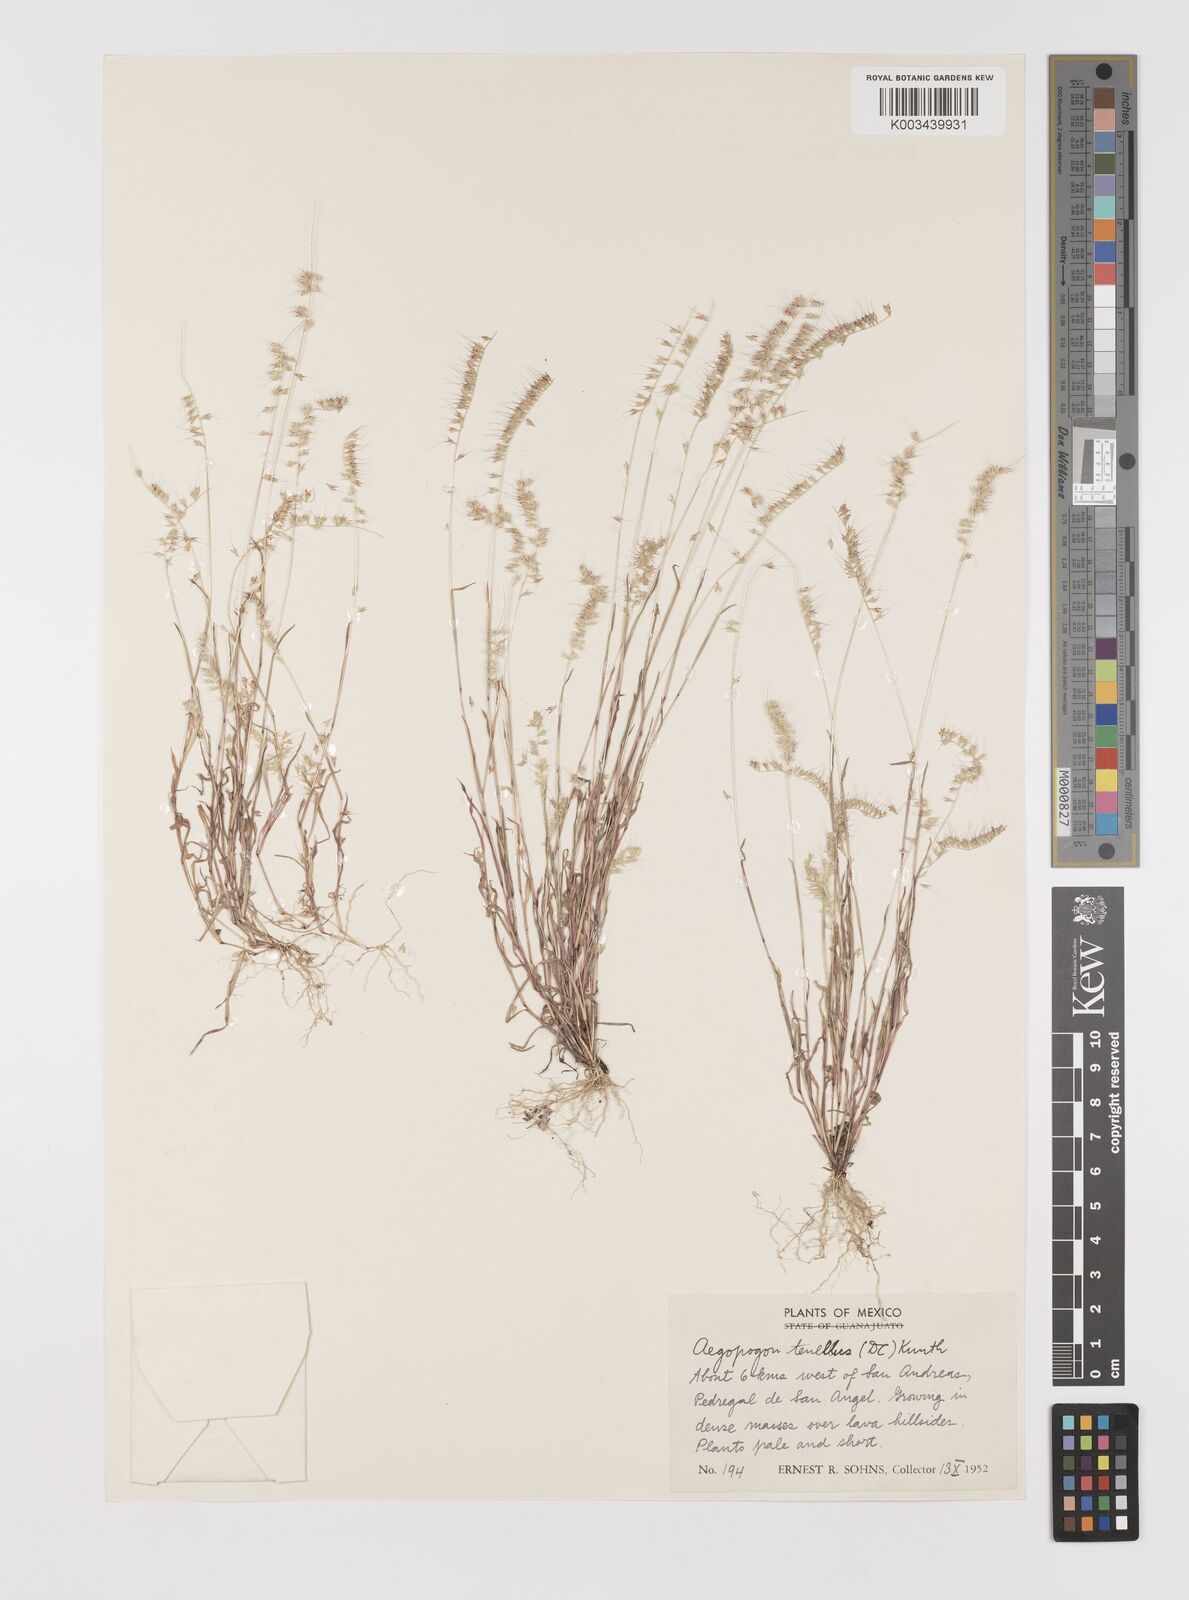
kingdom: Plantae
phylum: Tracheophyta
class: Liliopsida
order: Poales
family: Poaceae
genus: Muhlenbergia
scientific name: Muhlenbergia uniseta
